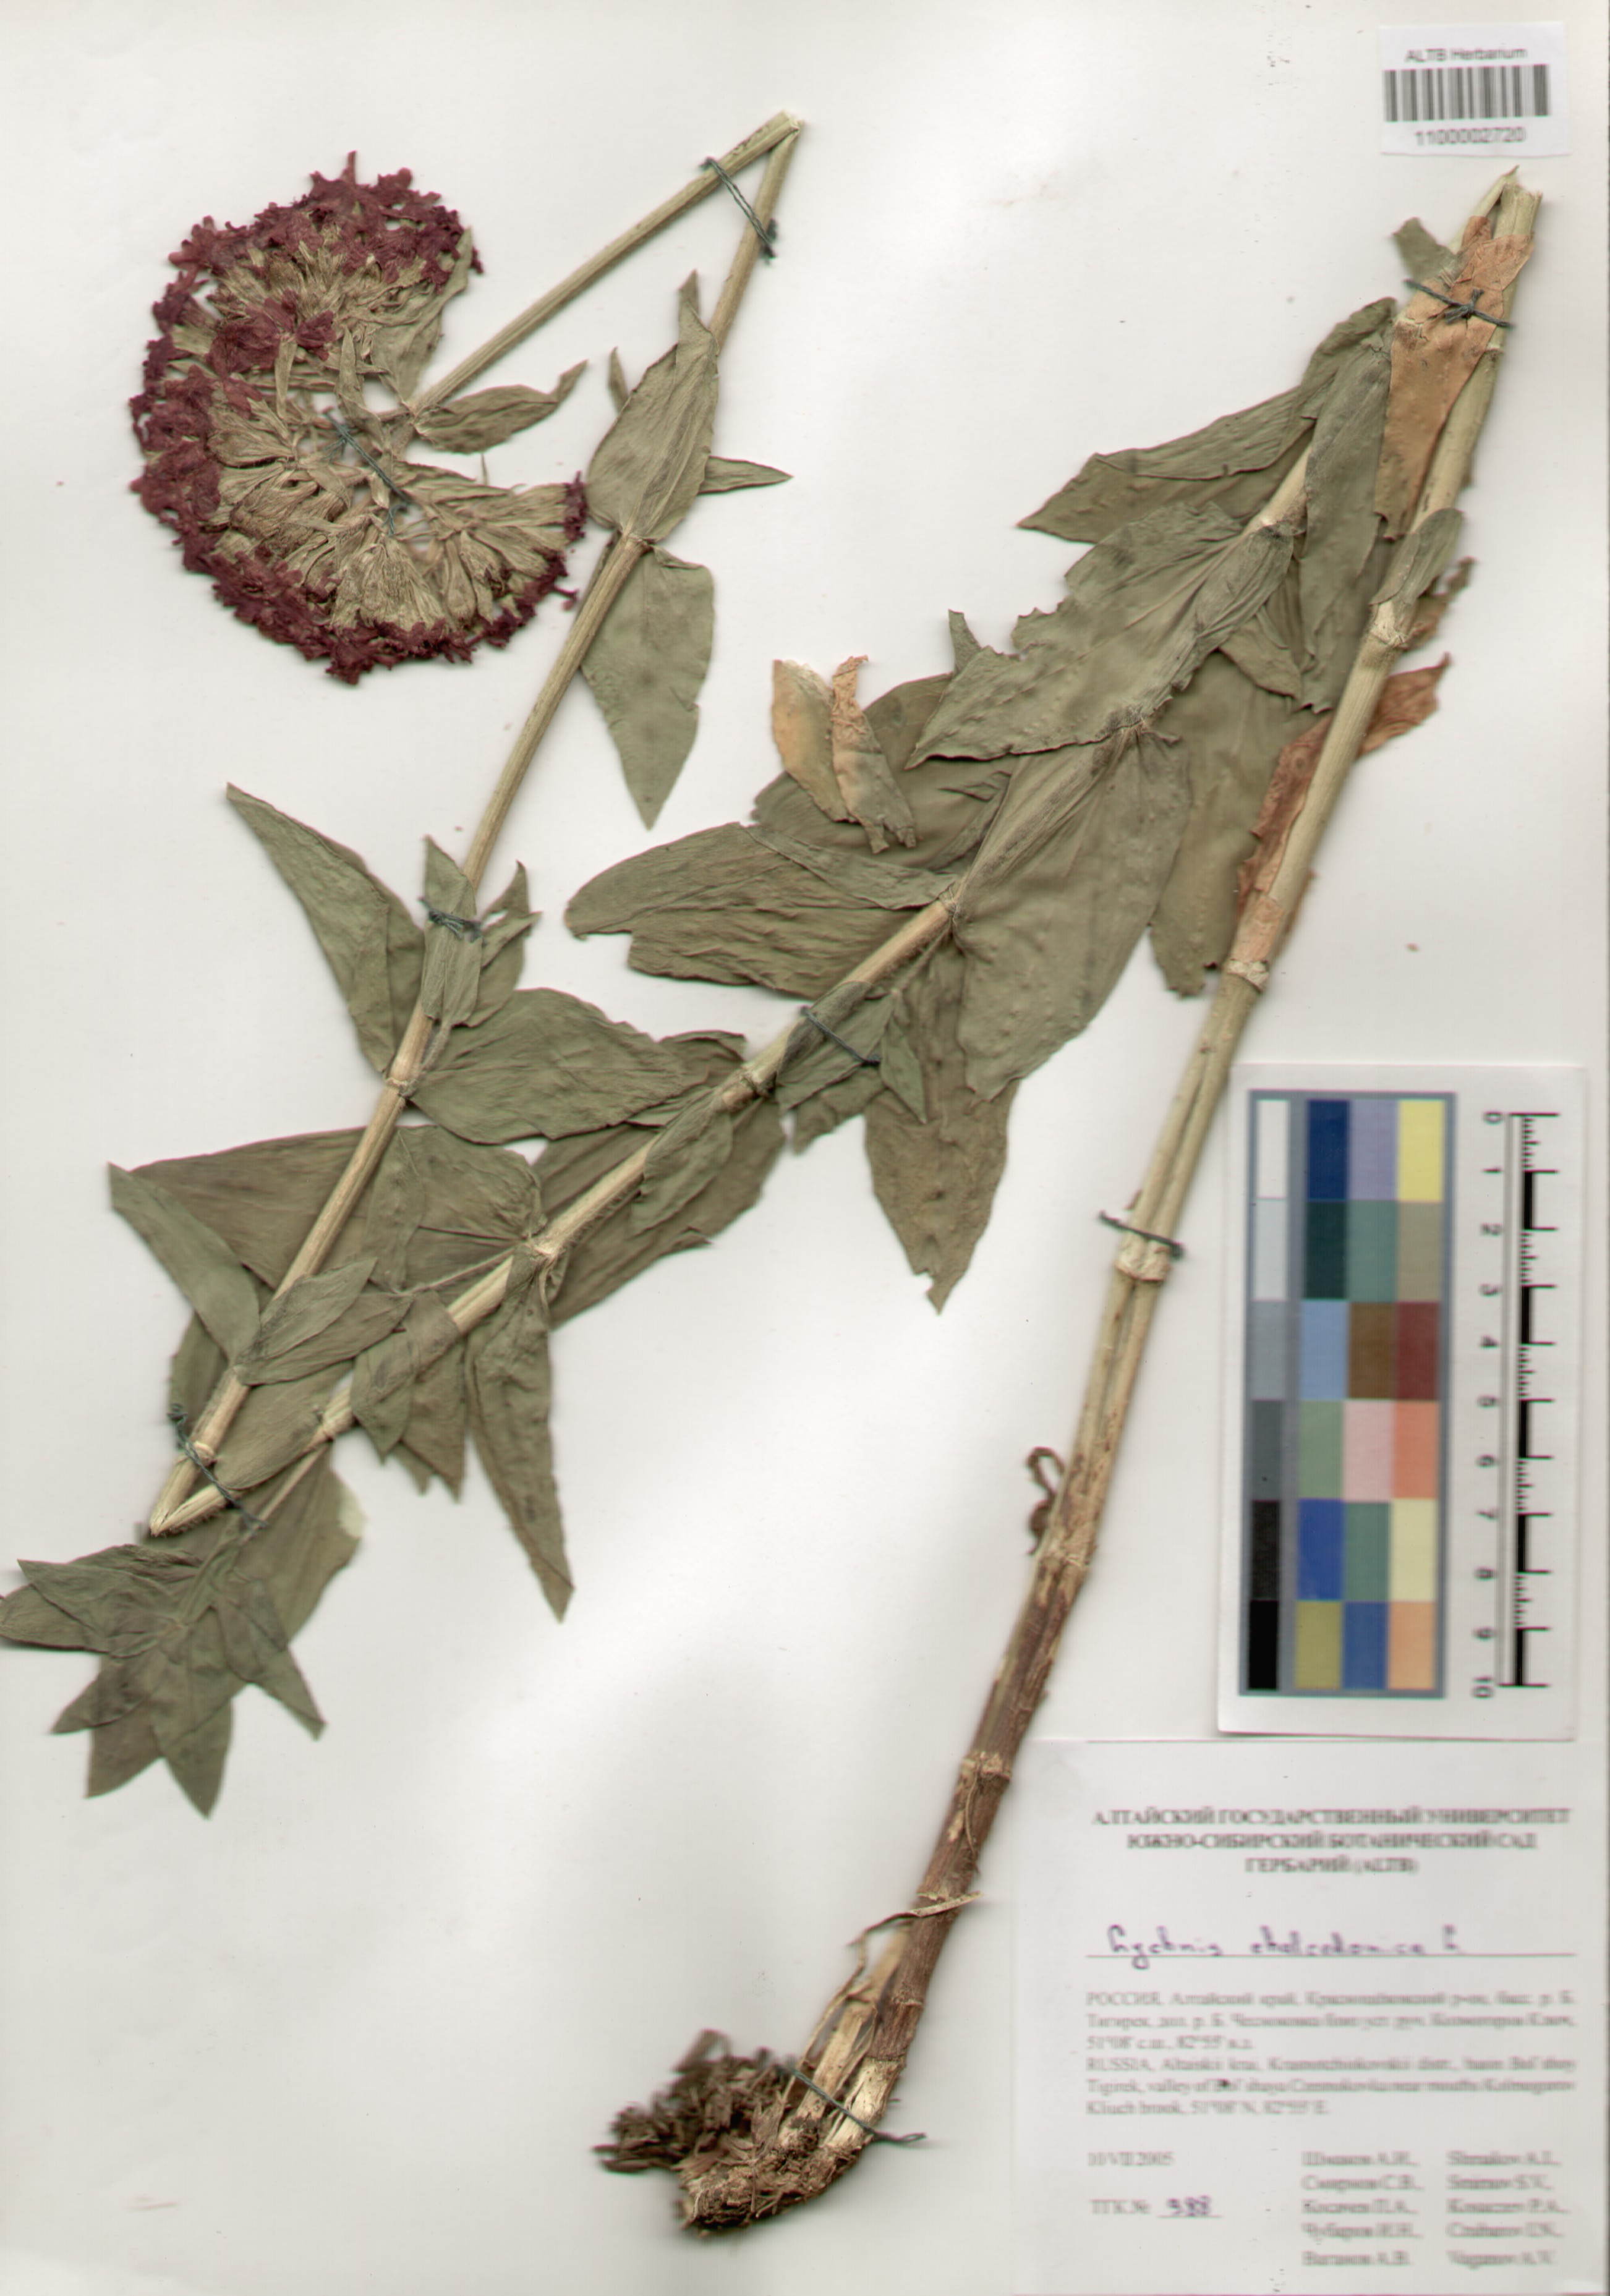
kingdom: Plantae
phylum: Tracheophyta
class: Magnoliopsida
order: Caryophyllales
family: Caryophyllaceae
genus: Silene
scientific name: Silene chalcedonica
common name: Maltese-cross
